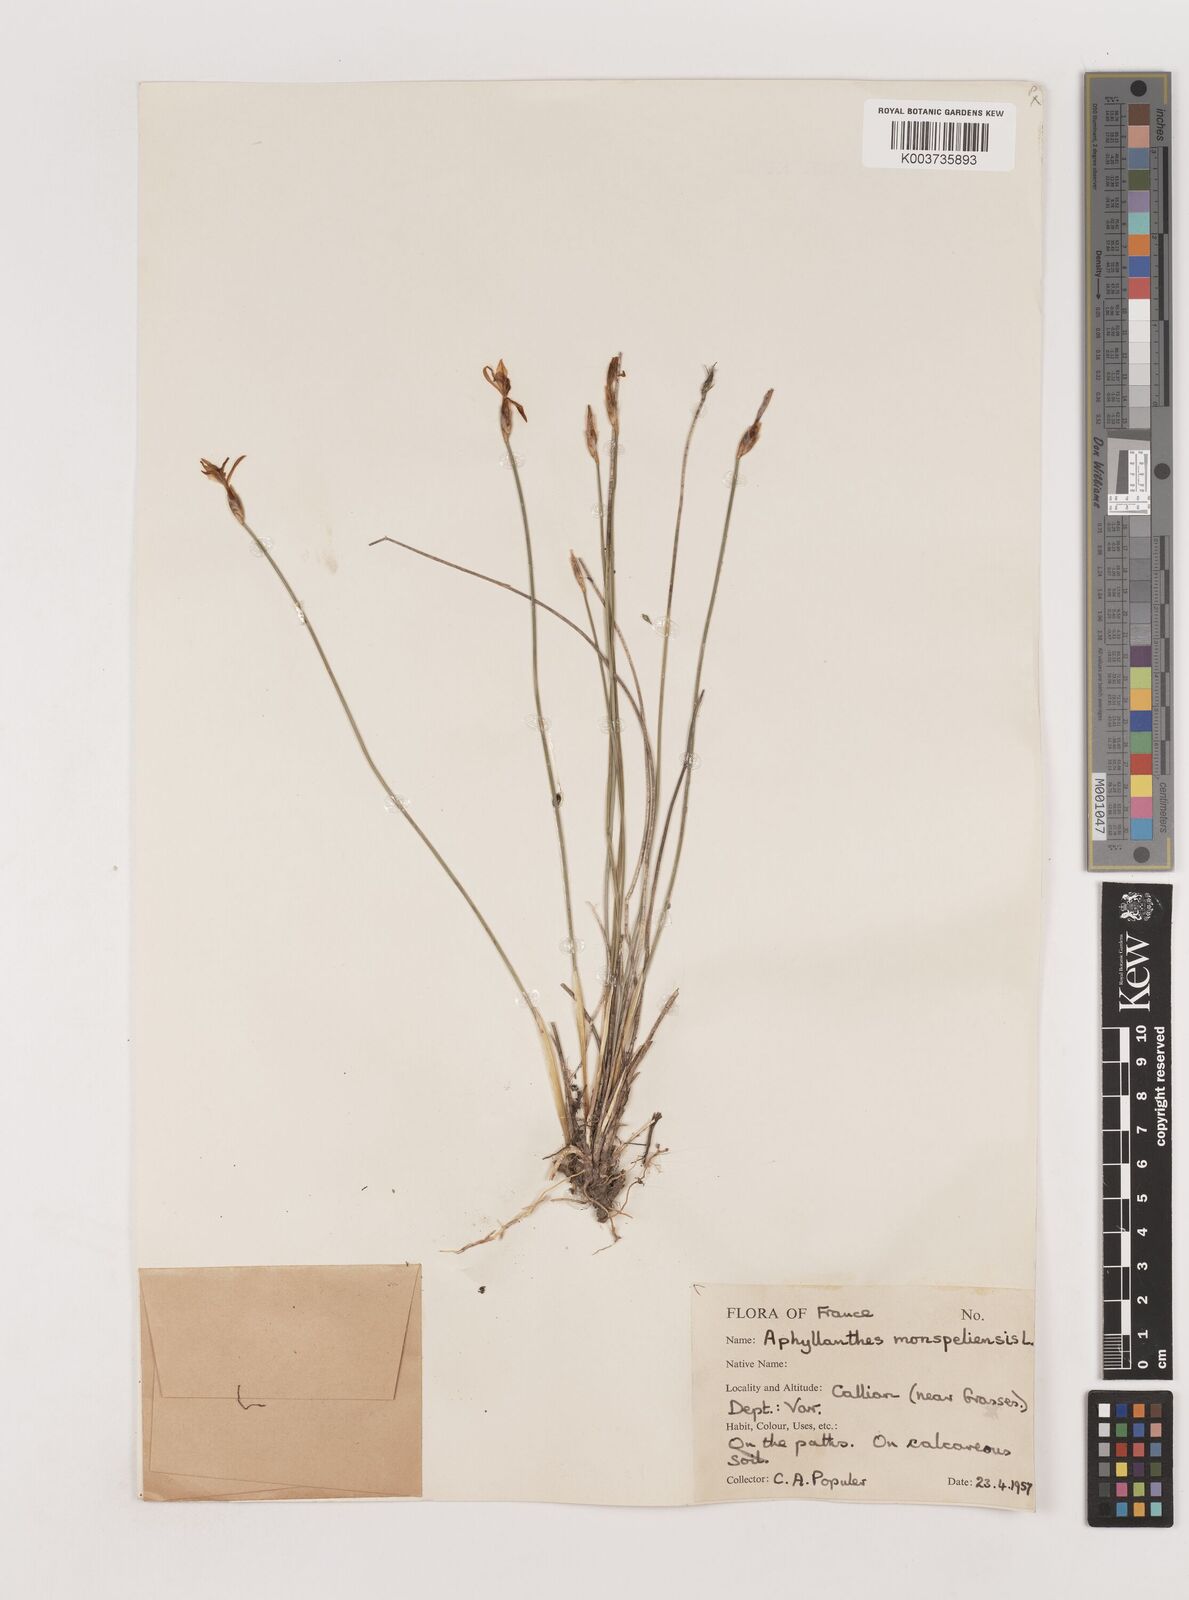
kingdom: Plantae
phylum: Tracheophyta
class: Liliopsida
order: Asparagales
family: Asparagaceae
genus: Aphyllanthes
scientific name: Aphyllanthes monspeliensis
